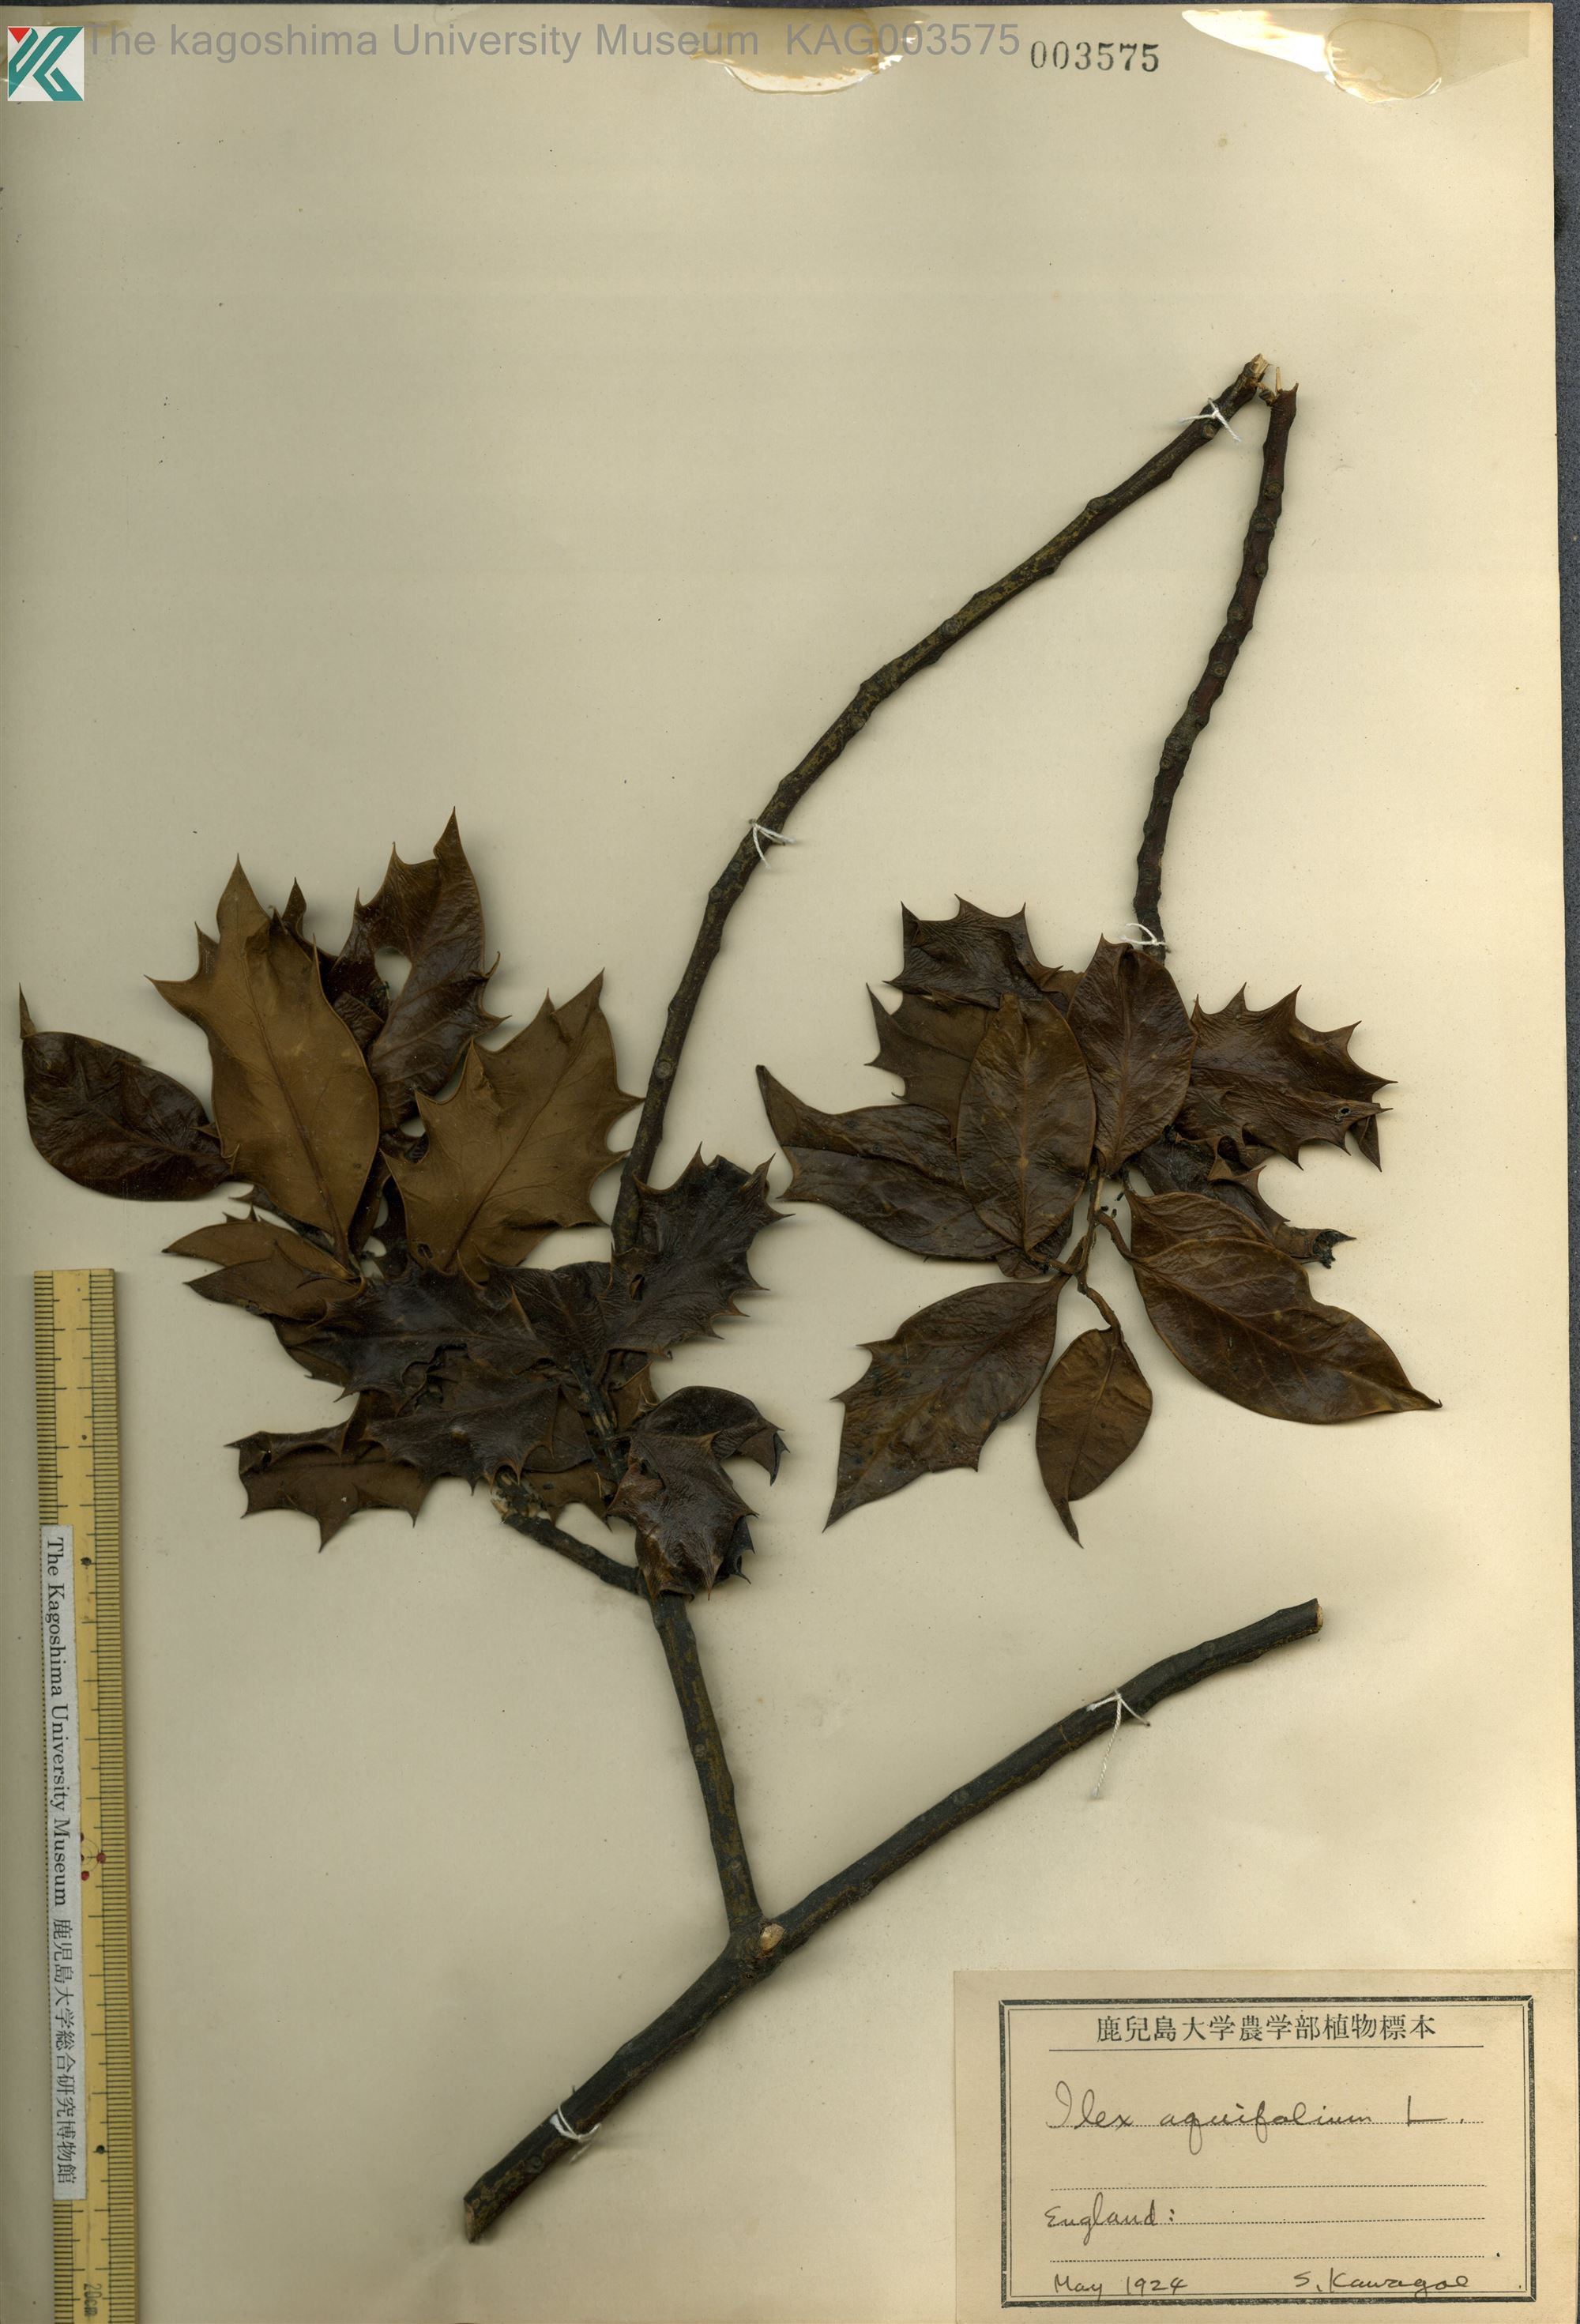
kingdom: Plantae
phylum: Tracheophyta
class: Magnoliopsida
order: Aquifoliales
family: Aquifoliaceae
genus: Ilex
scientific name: Ilex aquifolium
